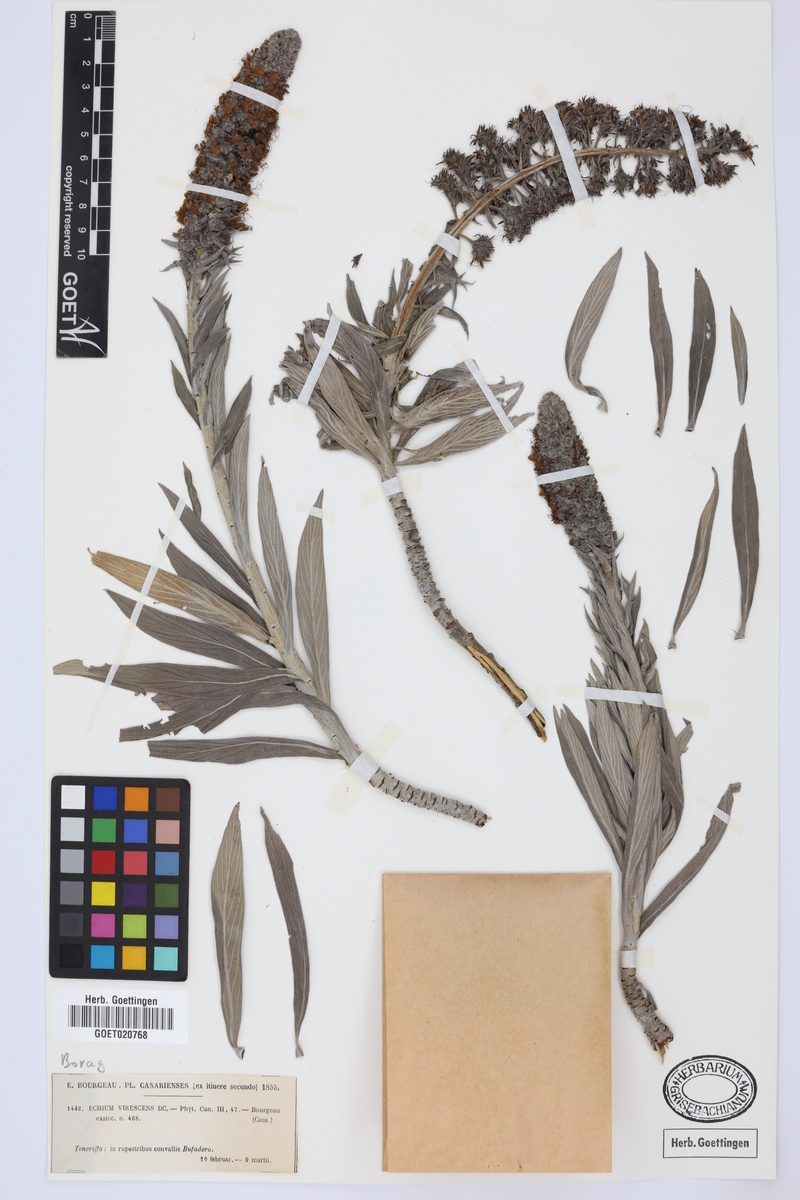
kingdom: Plantae
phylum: Tracheophyta
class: Magnoliopsida
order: Boraginales
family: Boraginaceae
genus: Echium
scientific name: Echium virescens
